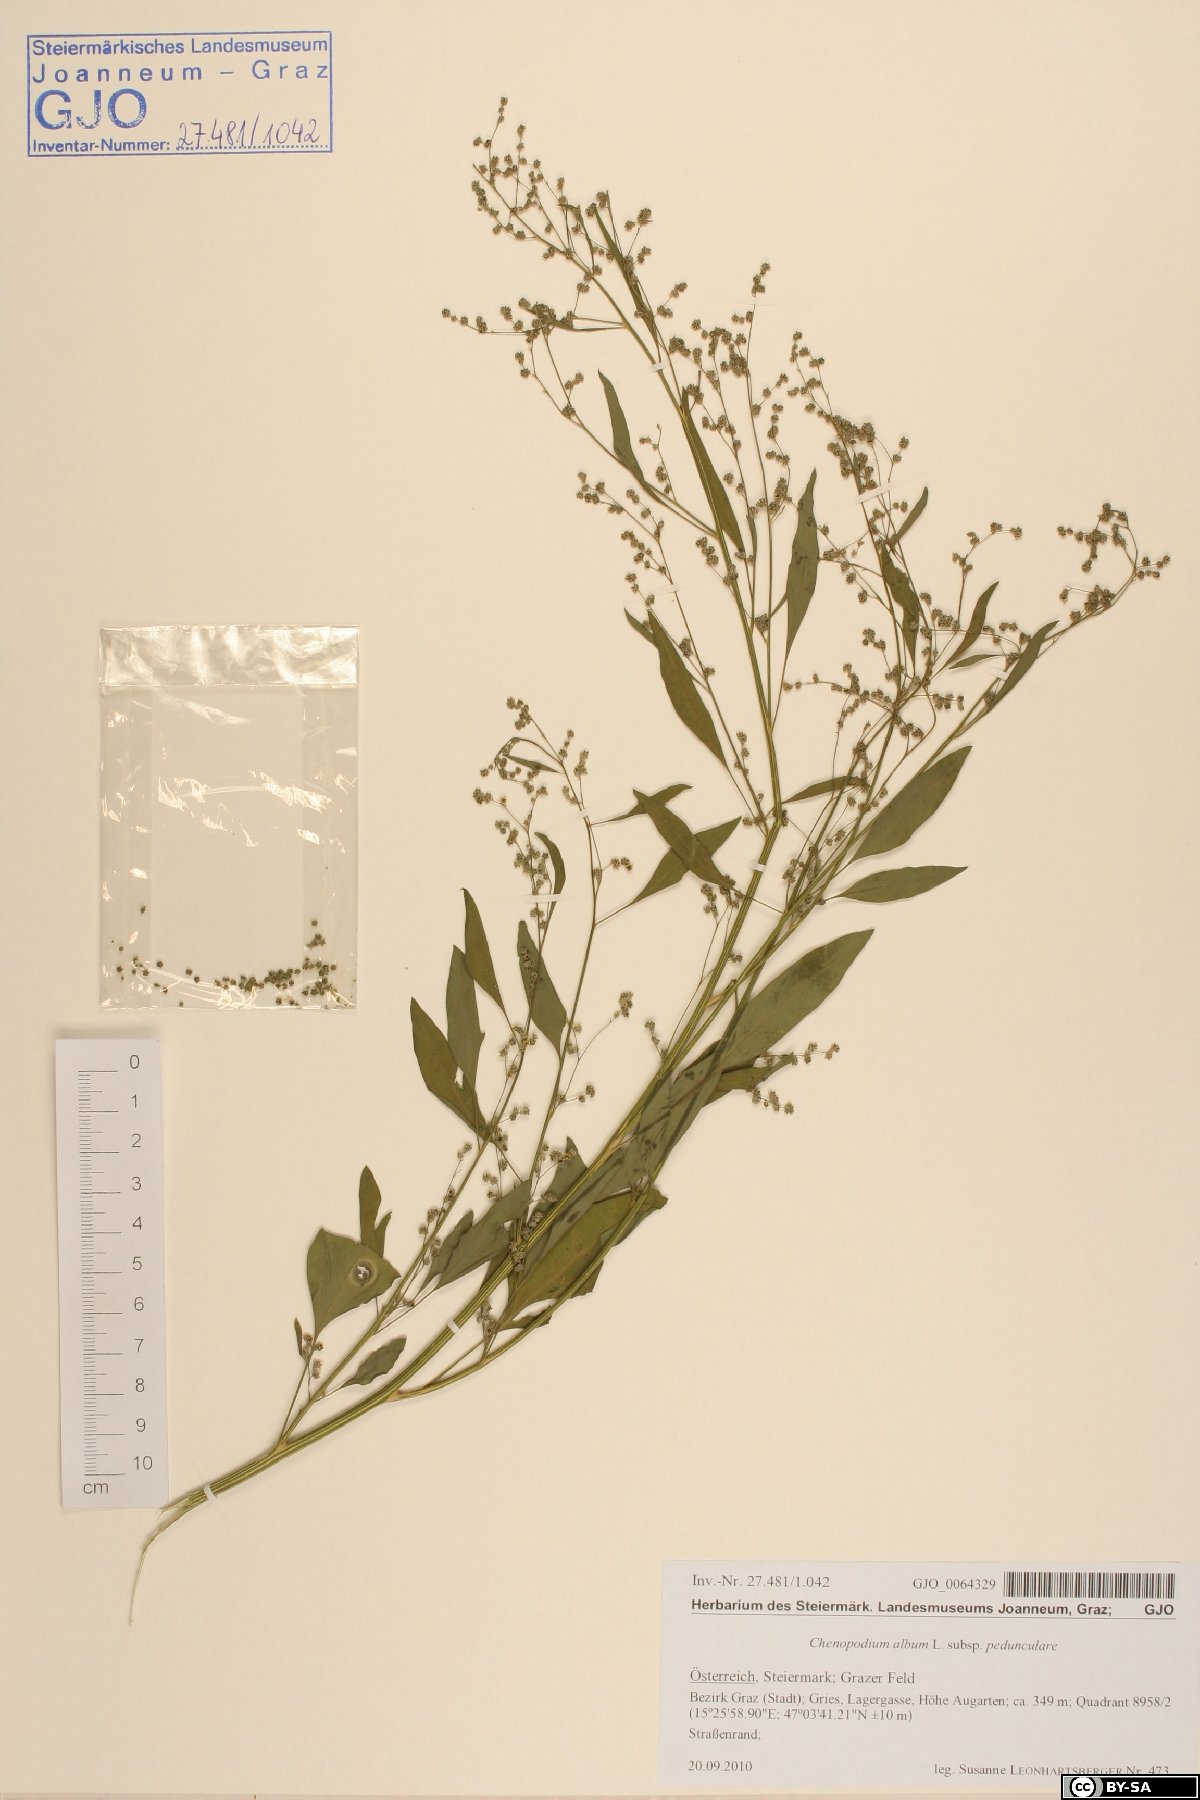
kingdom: Plantae
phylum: Tracheophyta
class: Magnoliopsida
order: Caryophyllales
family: Amaranthaceae
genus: Chenopodium
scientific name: Chenopodium album
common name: Fat-hen
